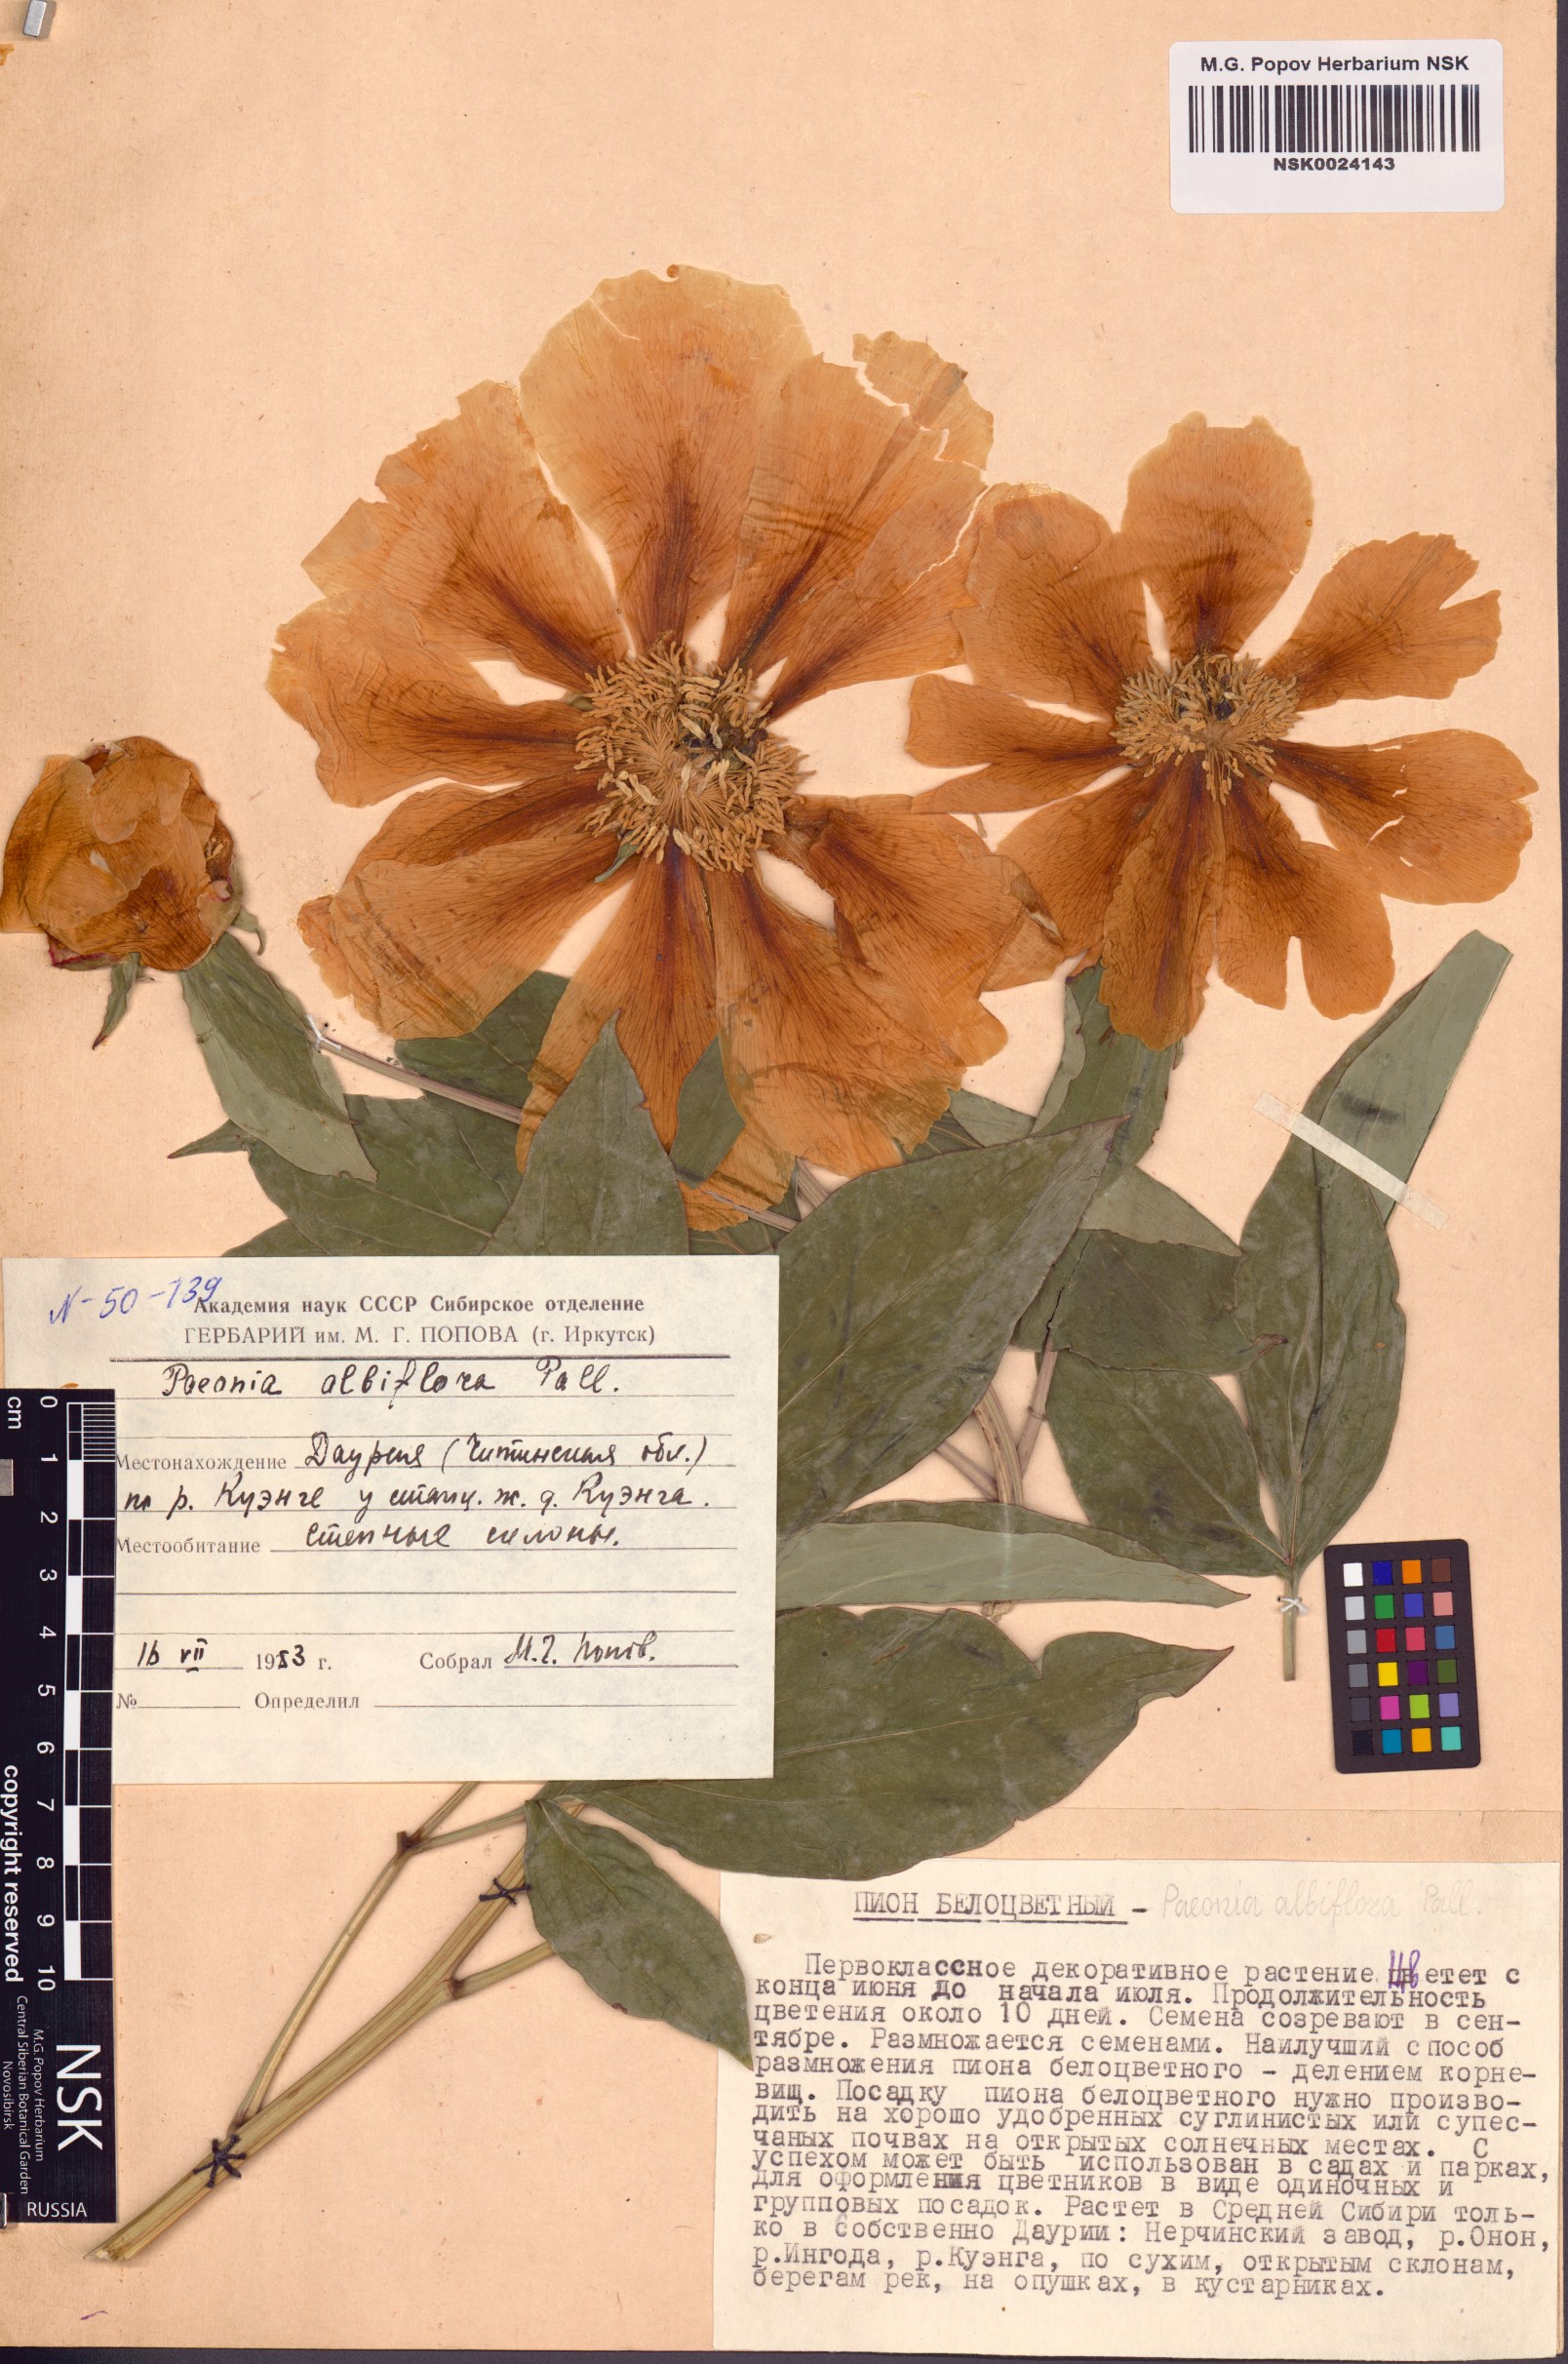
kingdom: Plantae
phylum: Tracheophyta
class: Magnoliopsida
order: Saxifragales
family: Paeoniaceae
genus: Paeonia
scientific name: Paeonia lactiflora
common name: Chinese peony
